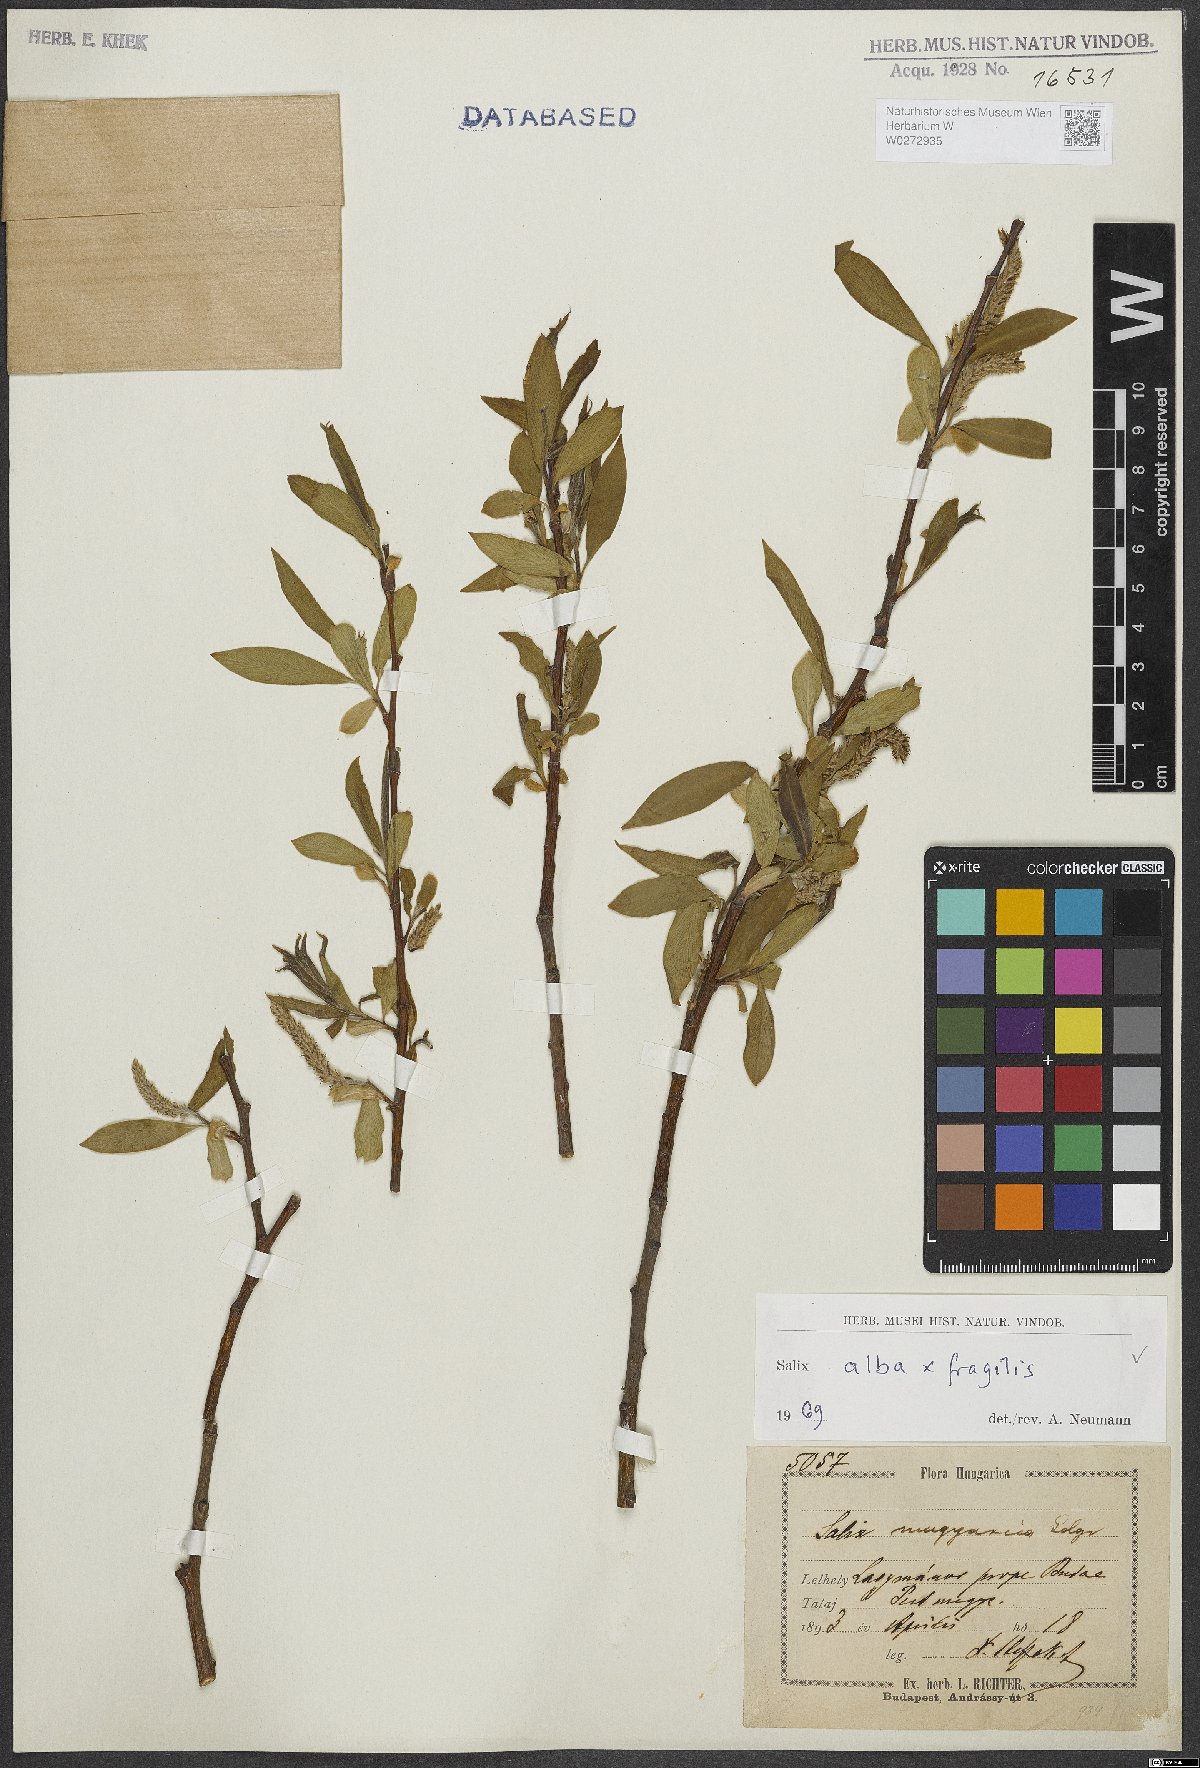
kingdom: Plantae
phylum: Tracheophyta
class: Magnoliopsida
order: Malpighiales
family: Salicaceae
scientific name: Salicaceae
